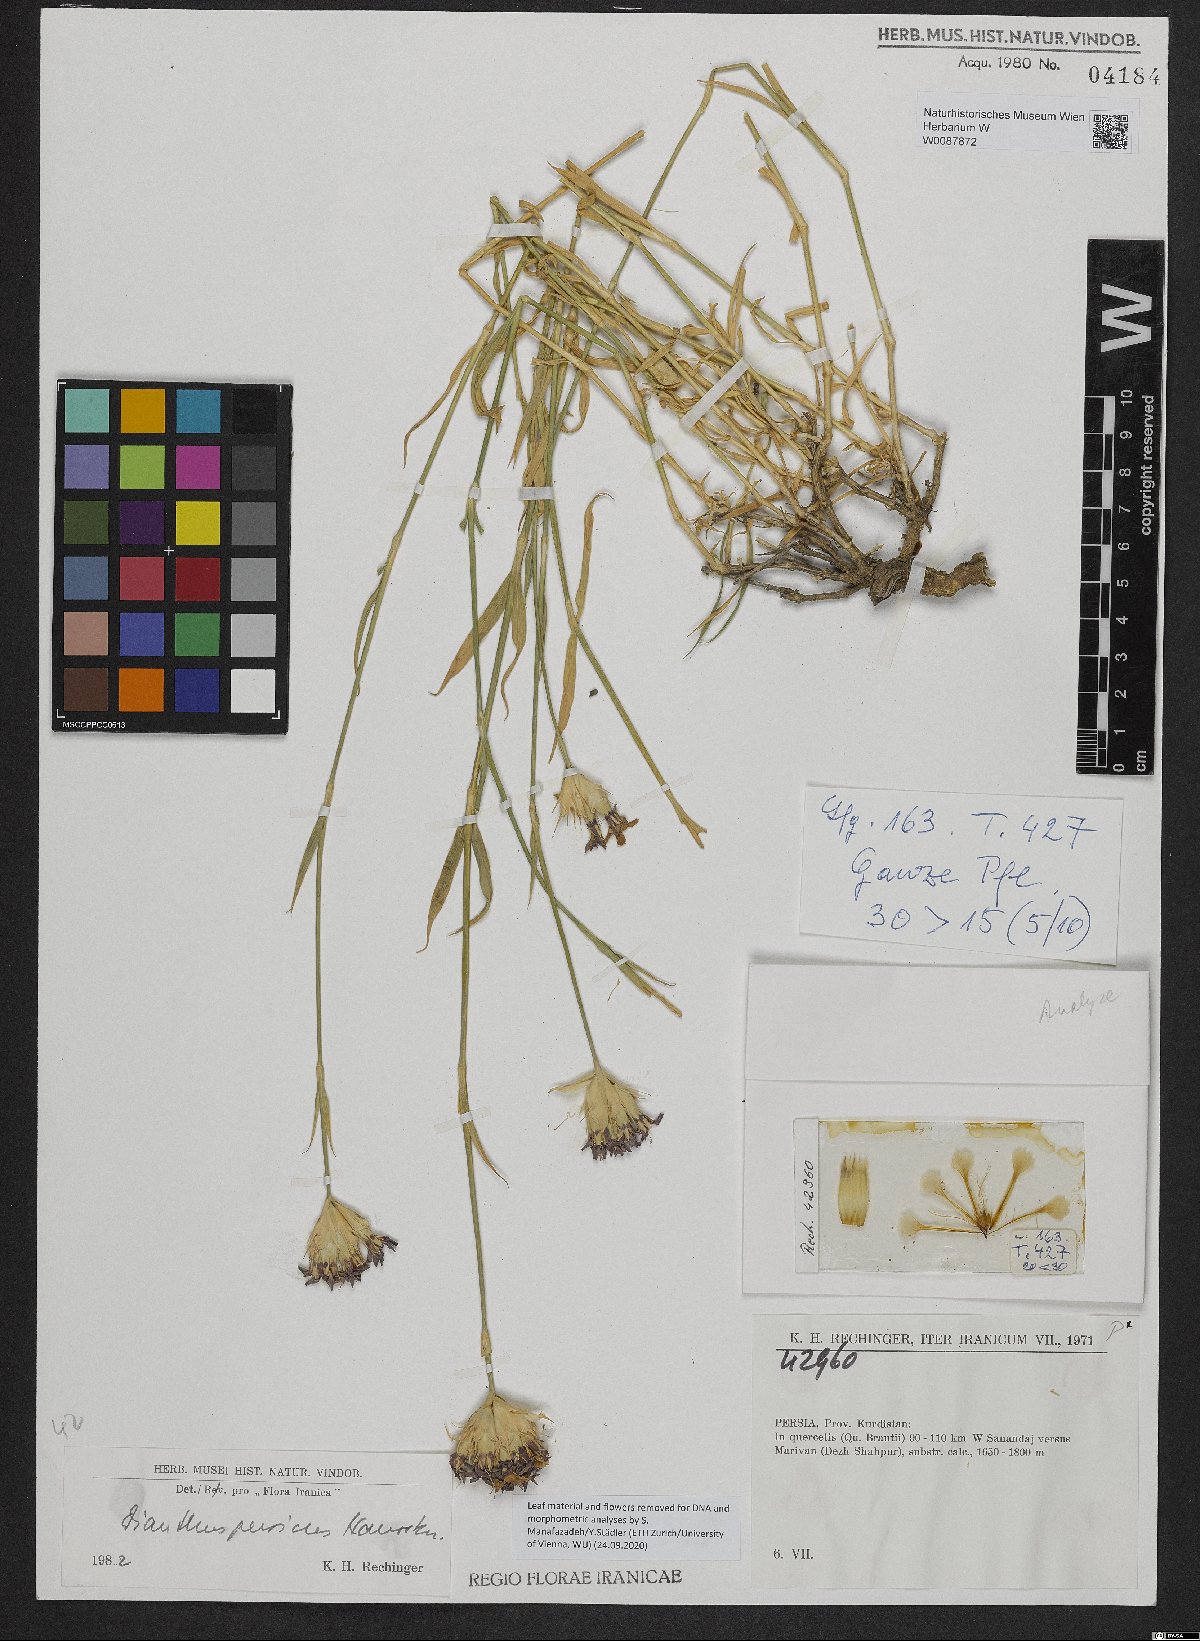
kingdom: Plantae
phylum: Tracheophyta
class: Magnoliopsida
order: Caryophyllales
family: Caryophyllaceae
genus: Dianthus
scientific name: Dianthus persicus
